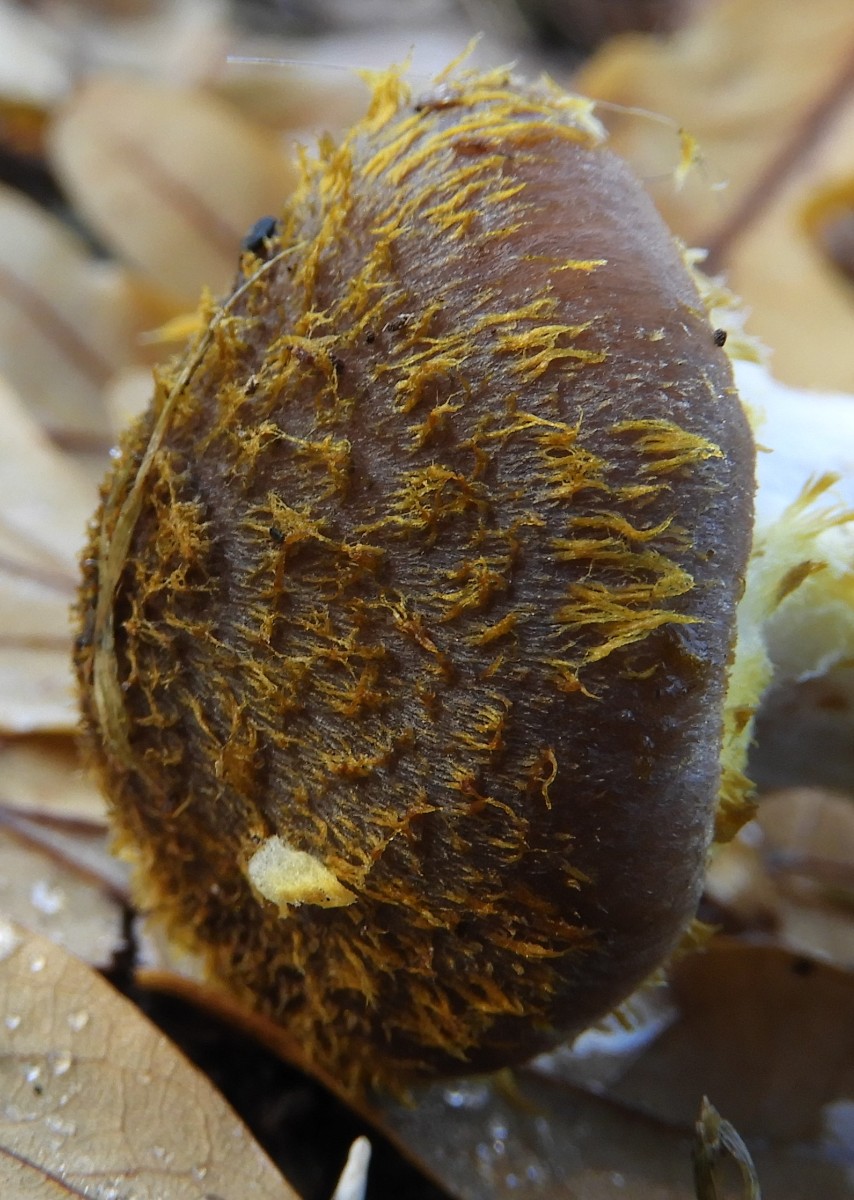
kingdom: Fungi
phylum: Basidiomycota
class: Agaricomycetes
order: Agaricales
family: Physalacriaceae
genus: Armillaria
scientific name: Armillaria lutea
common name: køllestokket honningsvamp
